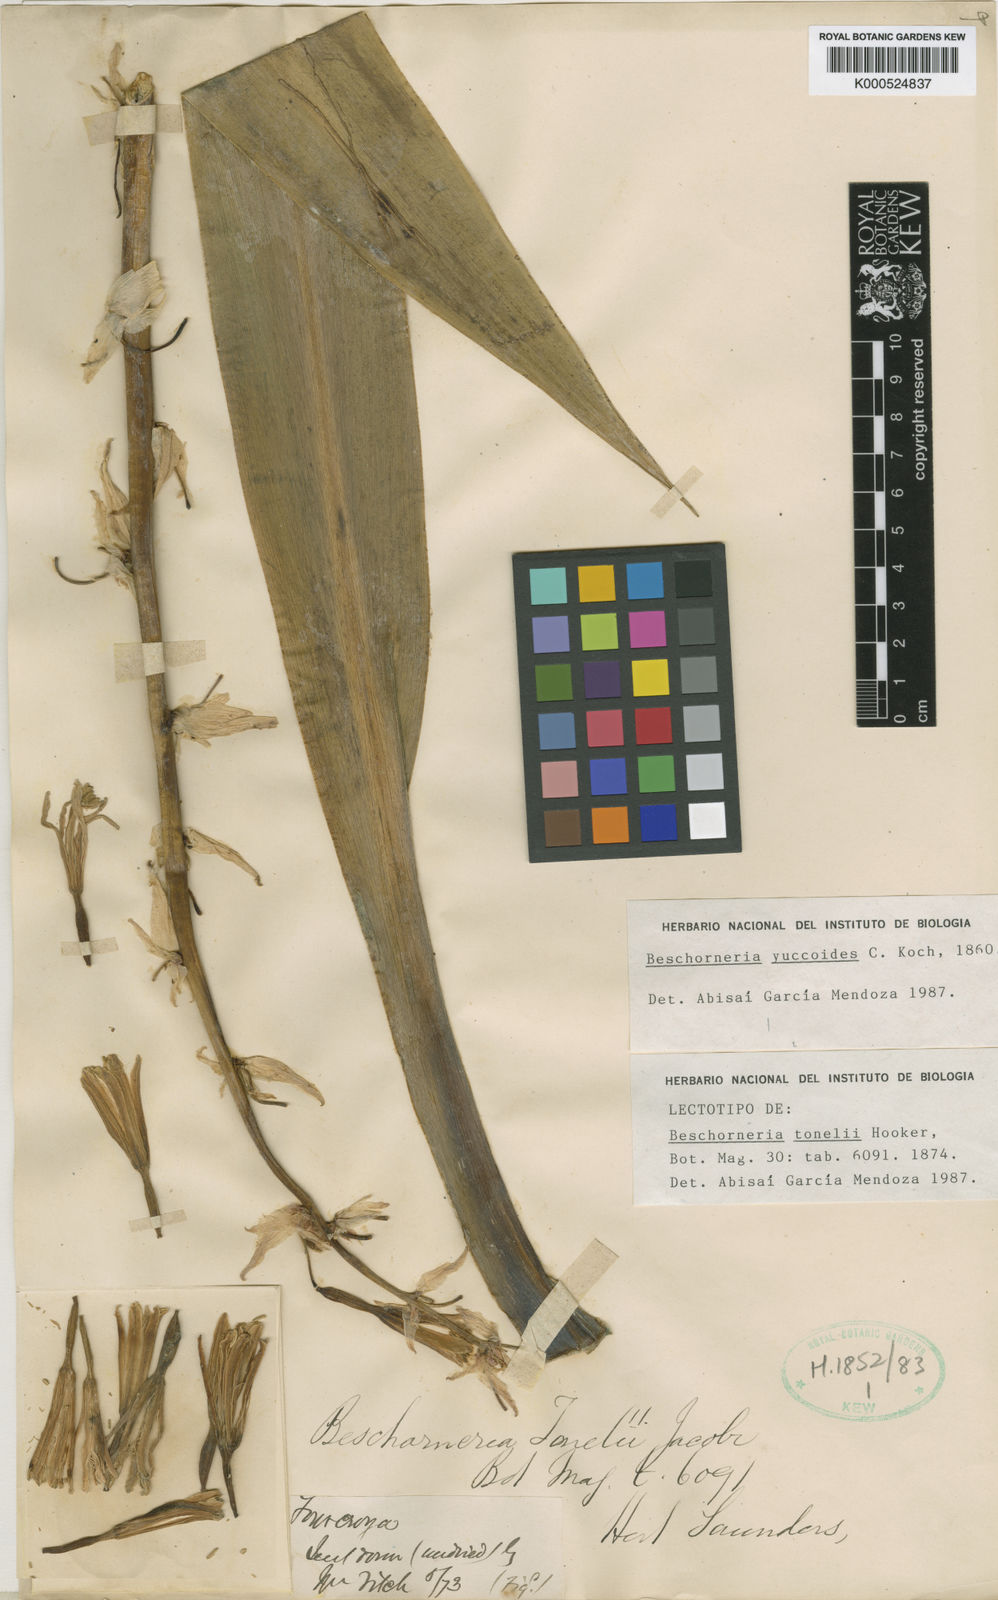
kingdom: Plantae
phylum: Tracheophyta
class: Liliopsida
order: Asparagales
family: Asparagaceae
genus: Beschorneria
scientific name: Beschorneria yuccoides
